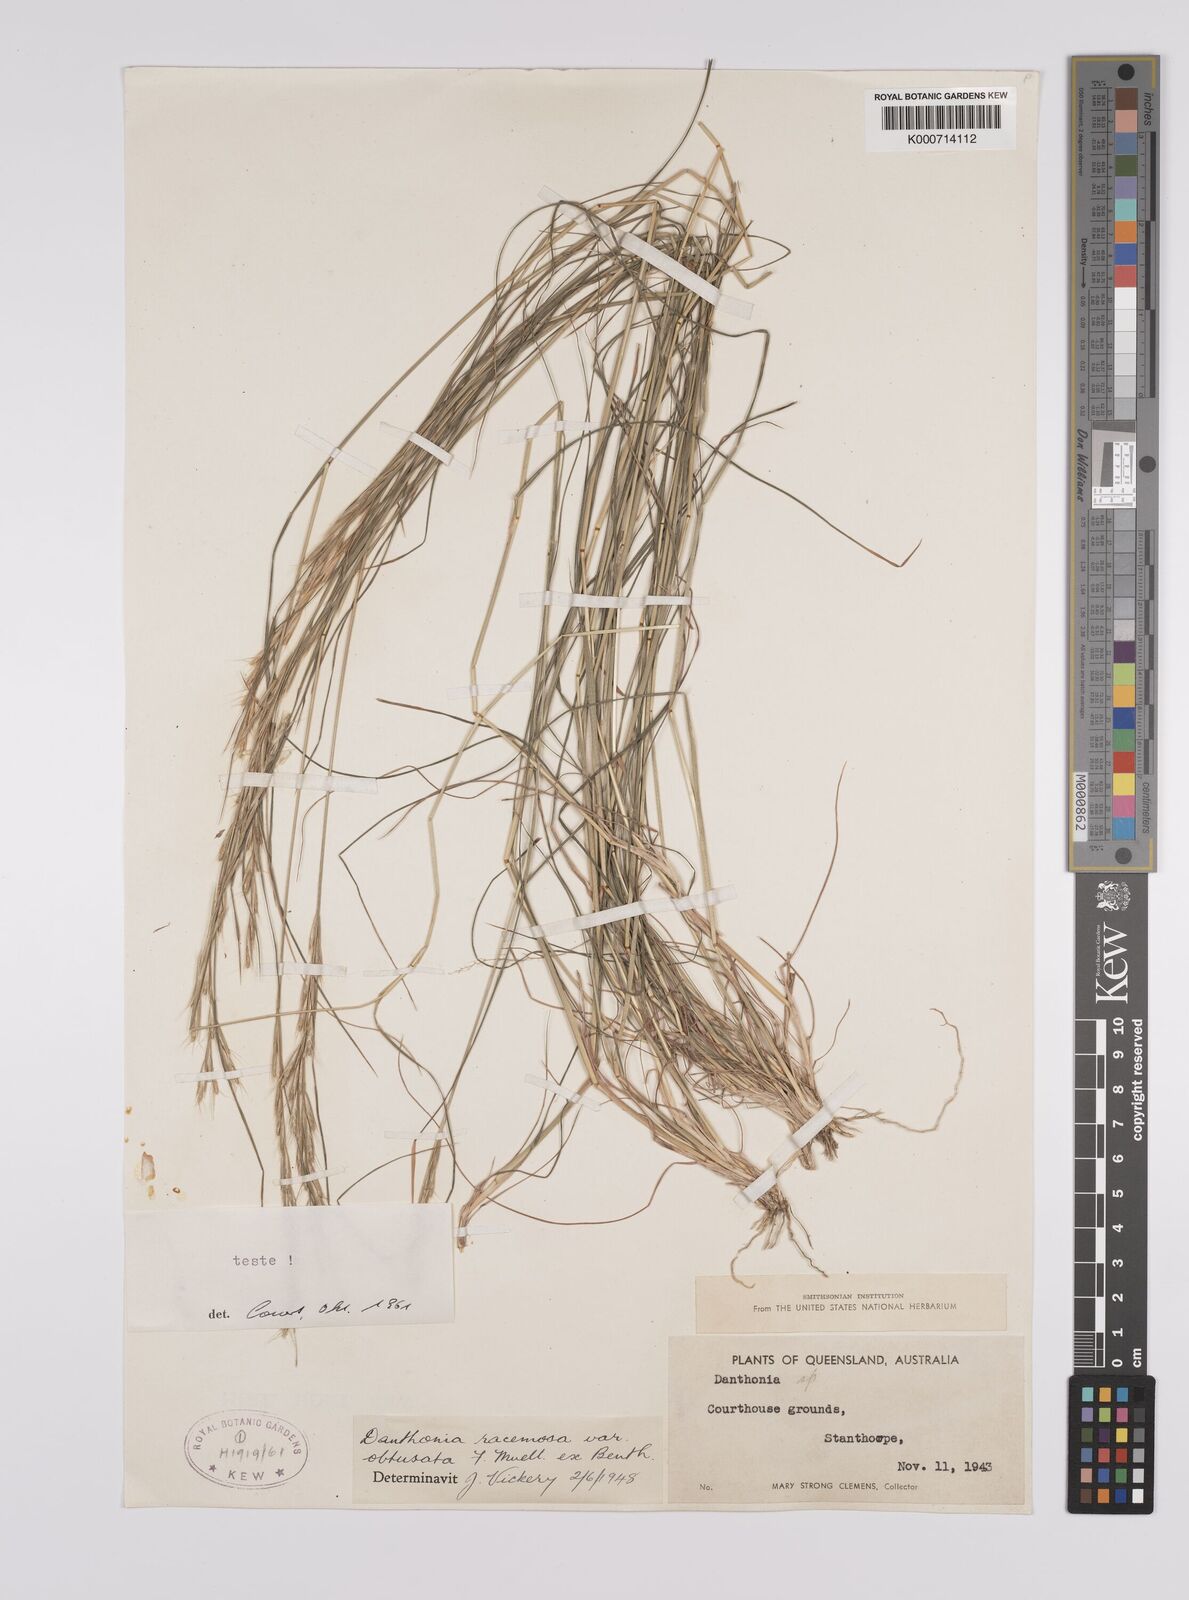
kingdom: Plantae
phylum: Tracheophyta
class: Liliopsida
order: Poales
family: Poaceae
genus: Rytidosperma
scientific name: Rytidosperma racemosum
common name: Wallaby-grass
